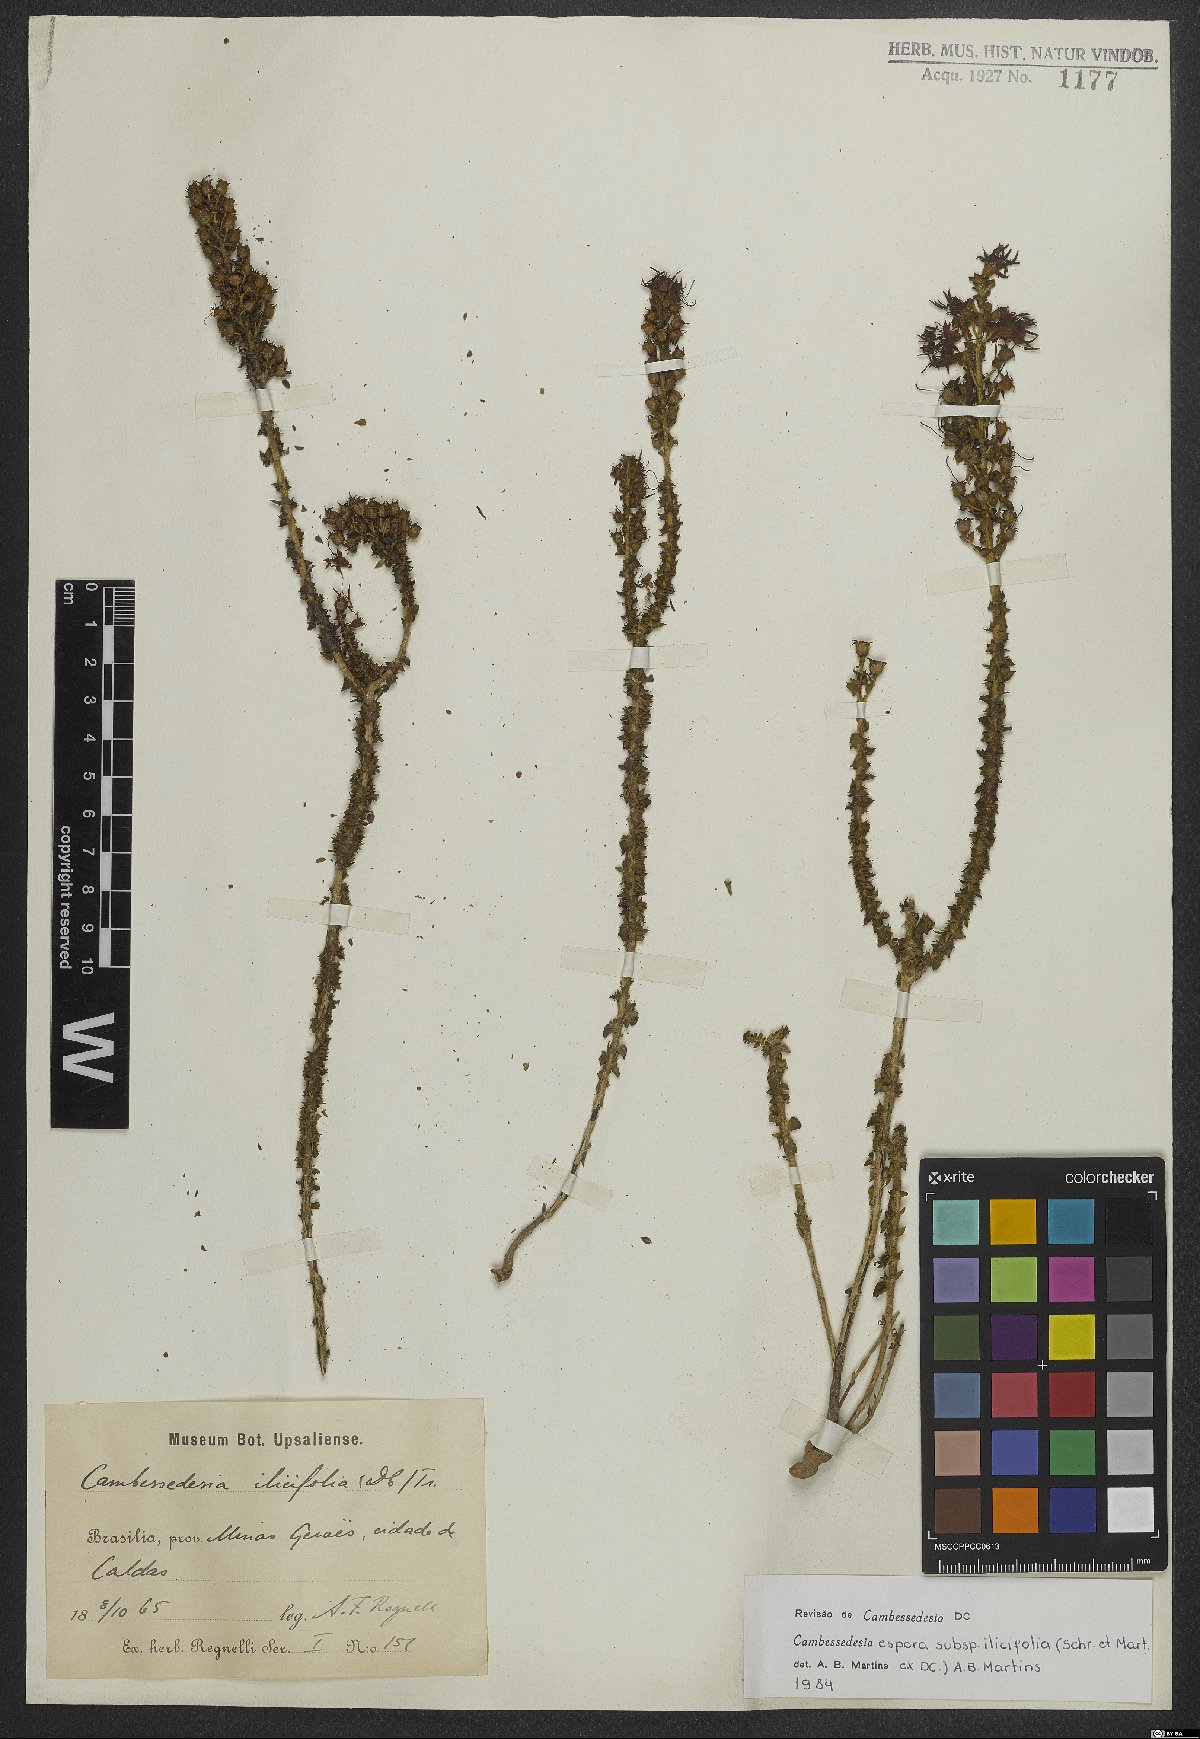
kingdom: Plantae
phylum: Tracheophyta
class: Magnoliopsida
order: Myrtales
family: Melastomataceae
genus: Cambessedesia
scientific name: Cambessedesia espora
